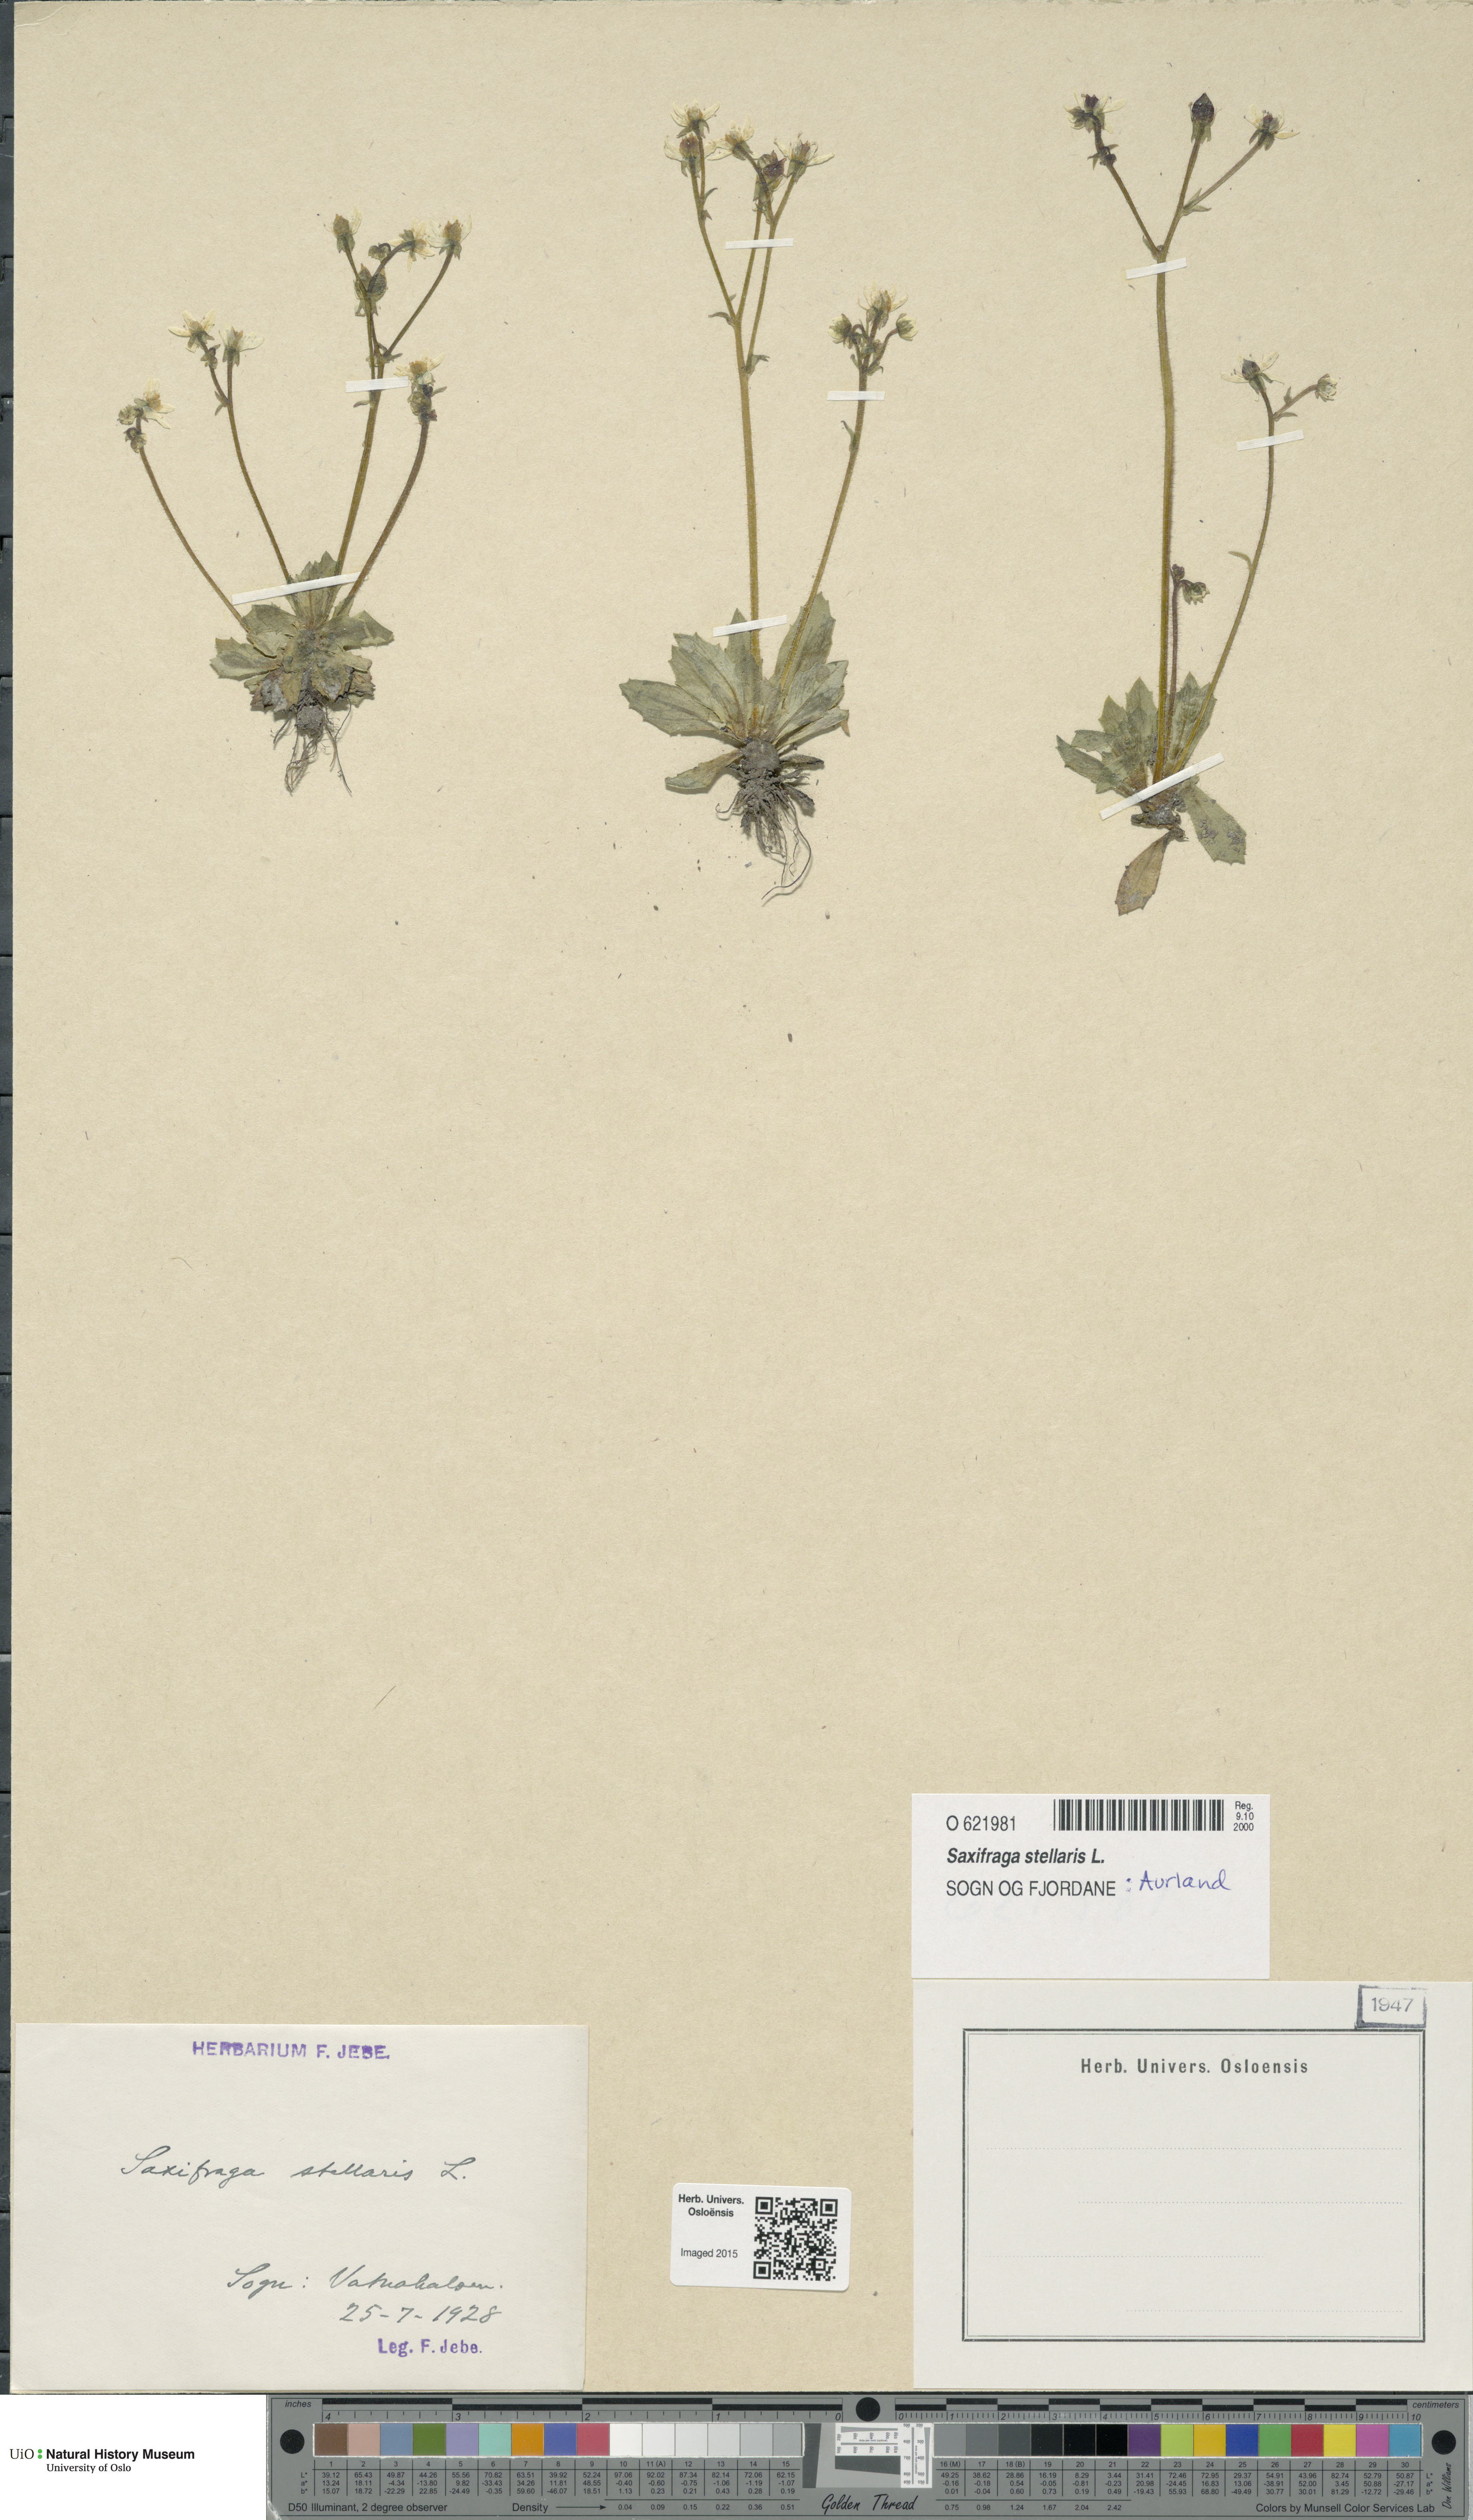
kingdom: Plantae
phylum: Tracheophyta
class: Magnoliopsida
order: Saxifragales
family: Saxifragaceae
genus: Micranthes
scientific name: Micranthes stellaris
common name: Starry saxifrage
